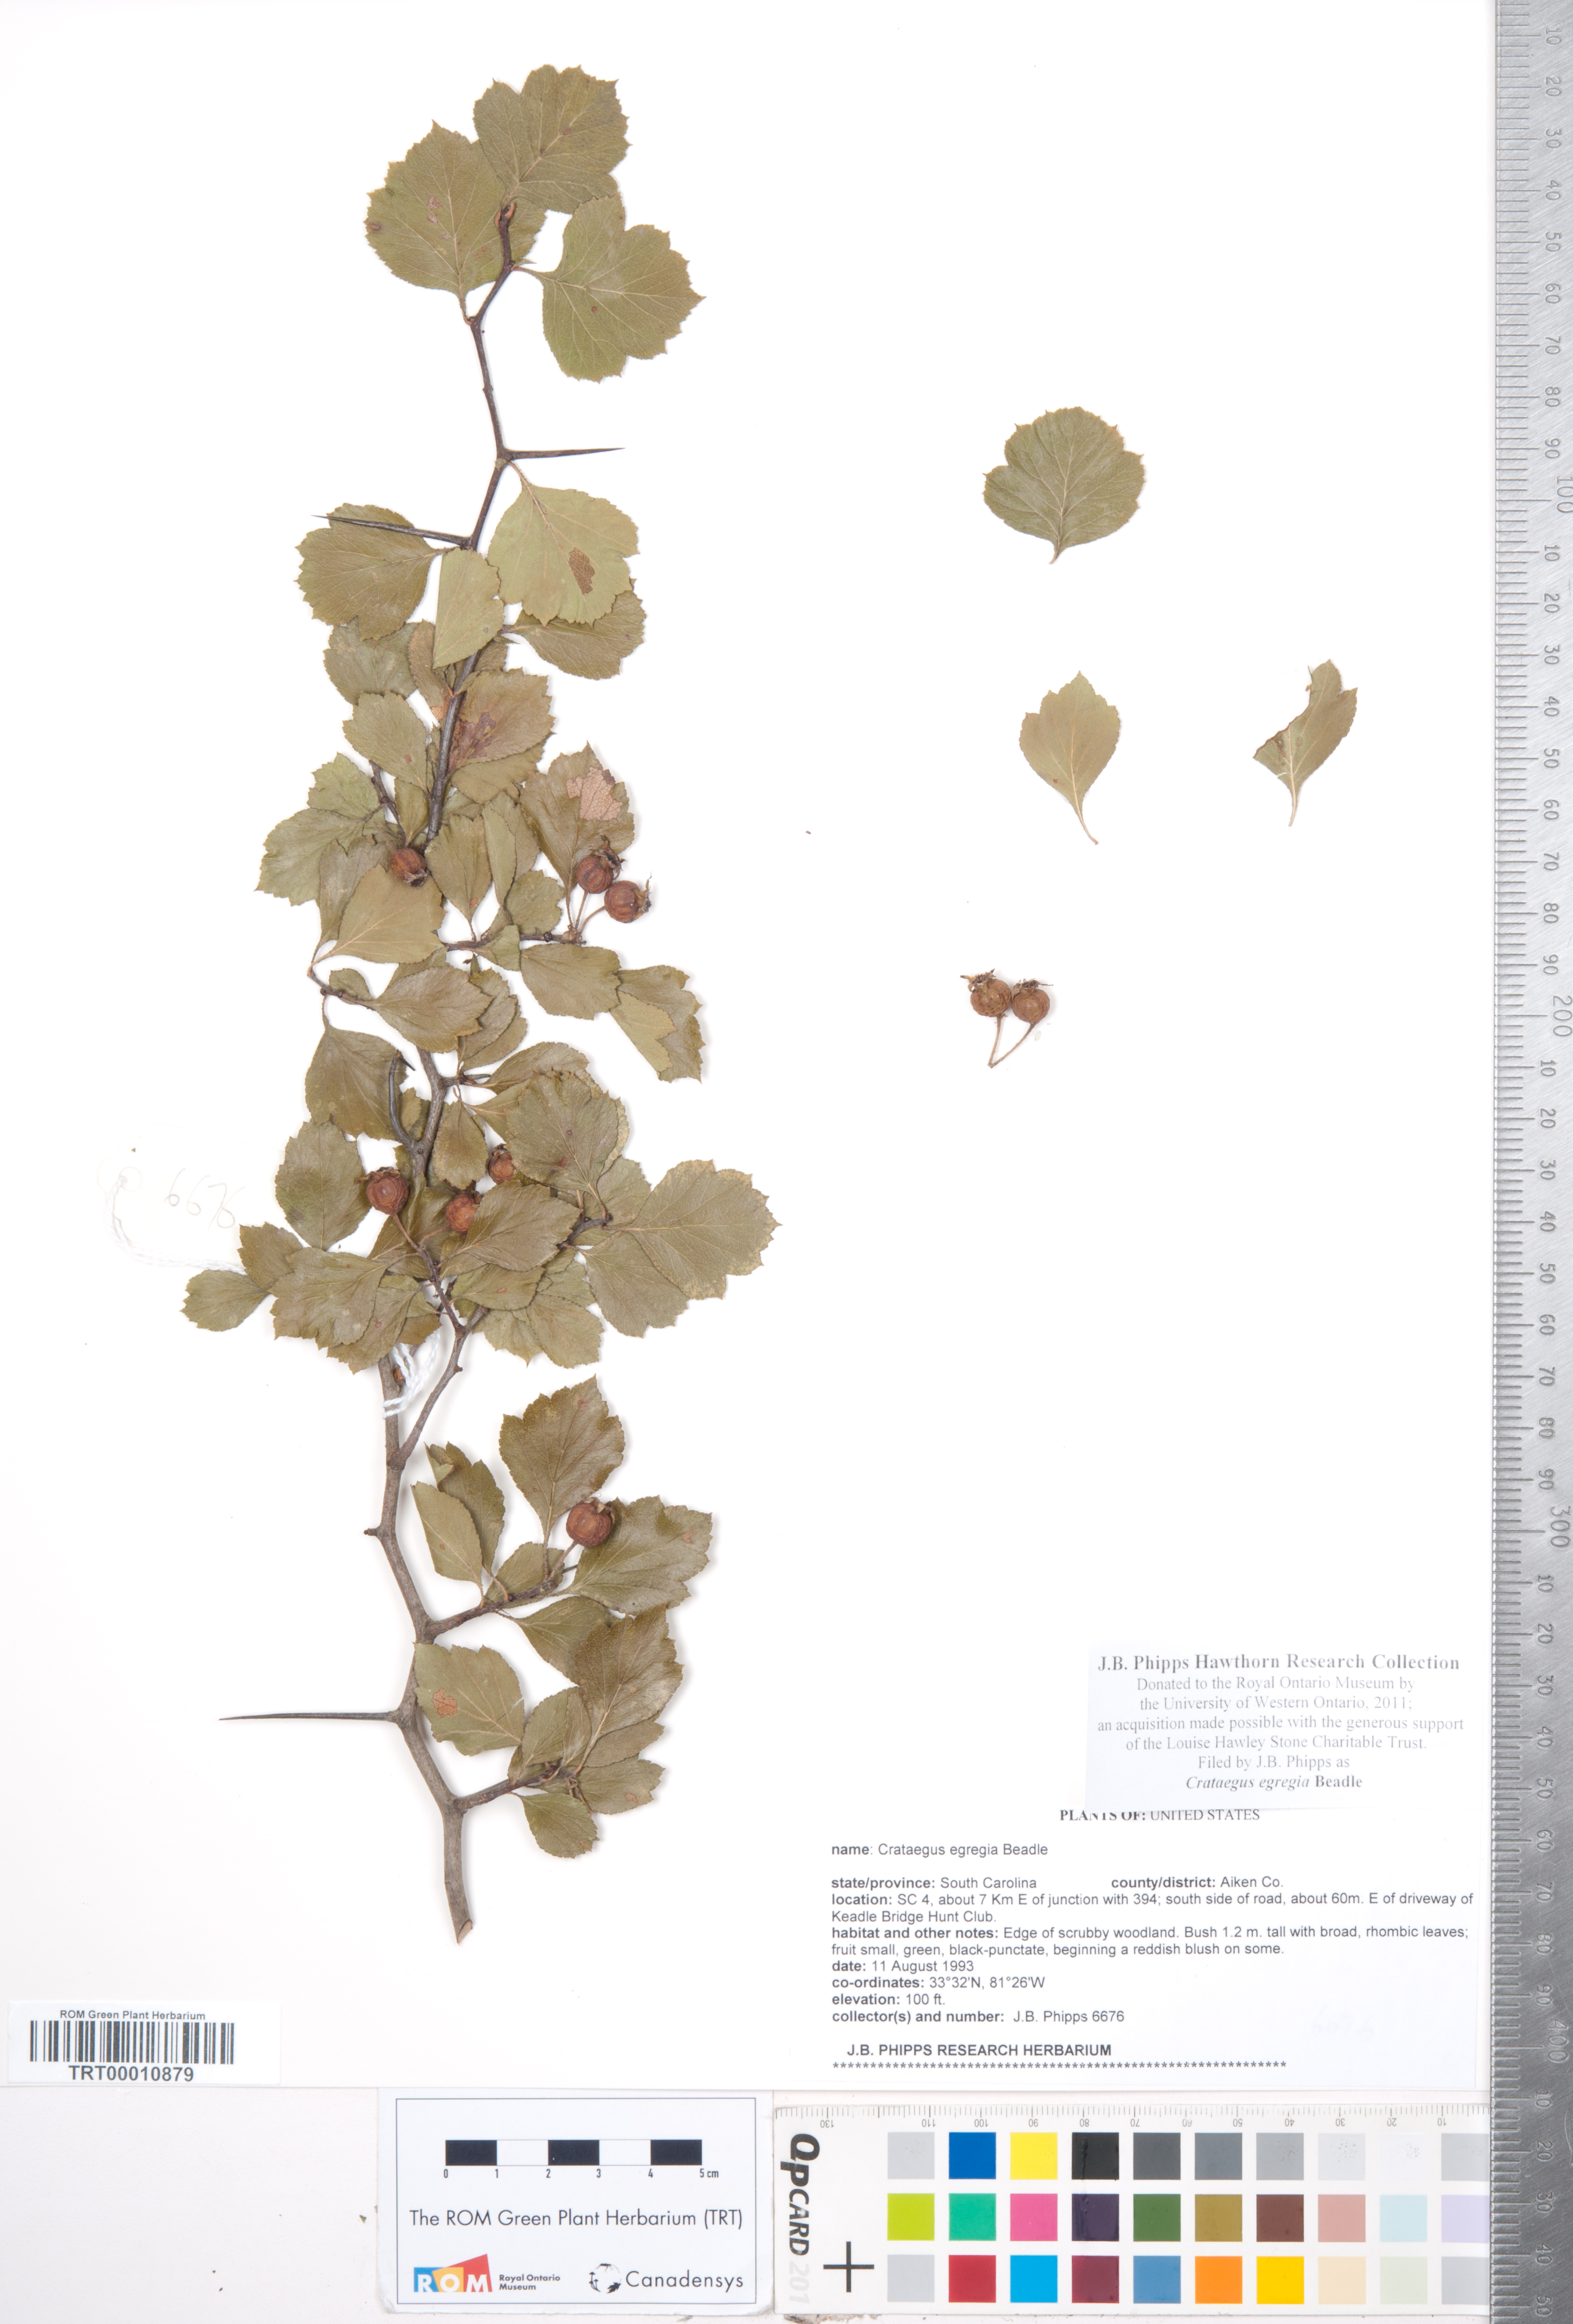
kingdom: Plantae
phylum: Tracheophyta
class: Magnoliopsida
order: Rosales
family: Rosaceae
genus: Crataegus
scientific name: Crataegus aprica
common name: Sunny hawthorn
